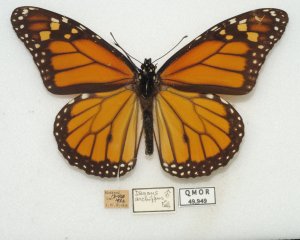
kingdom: Animalia
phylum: Arthropoda
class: Insecta
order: Lepidoptera
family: Nymphalidae
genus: Danaus
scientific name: Danaus plexippus
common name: Monarch
